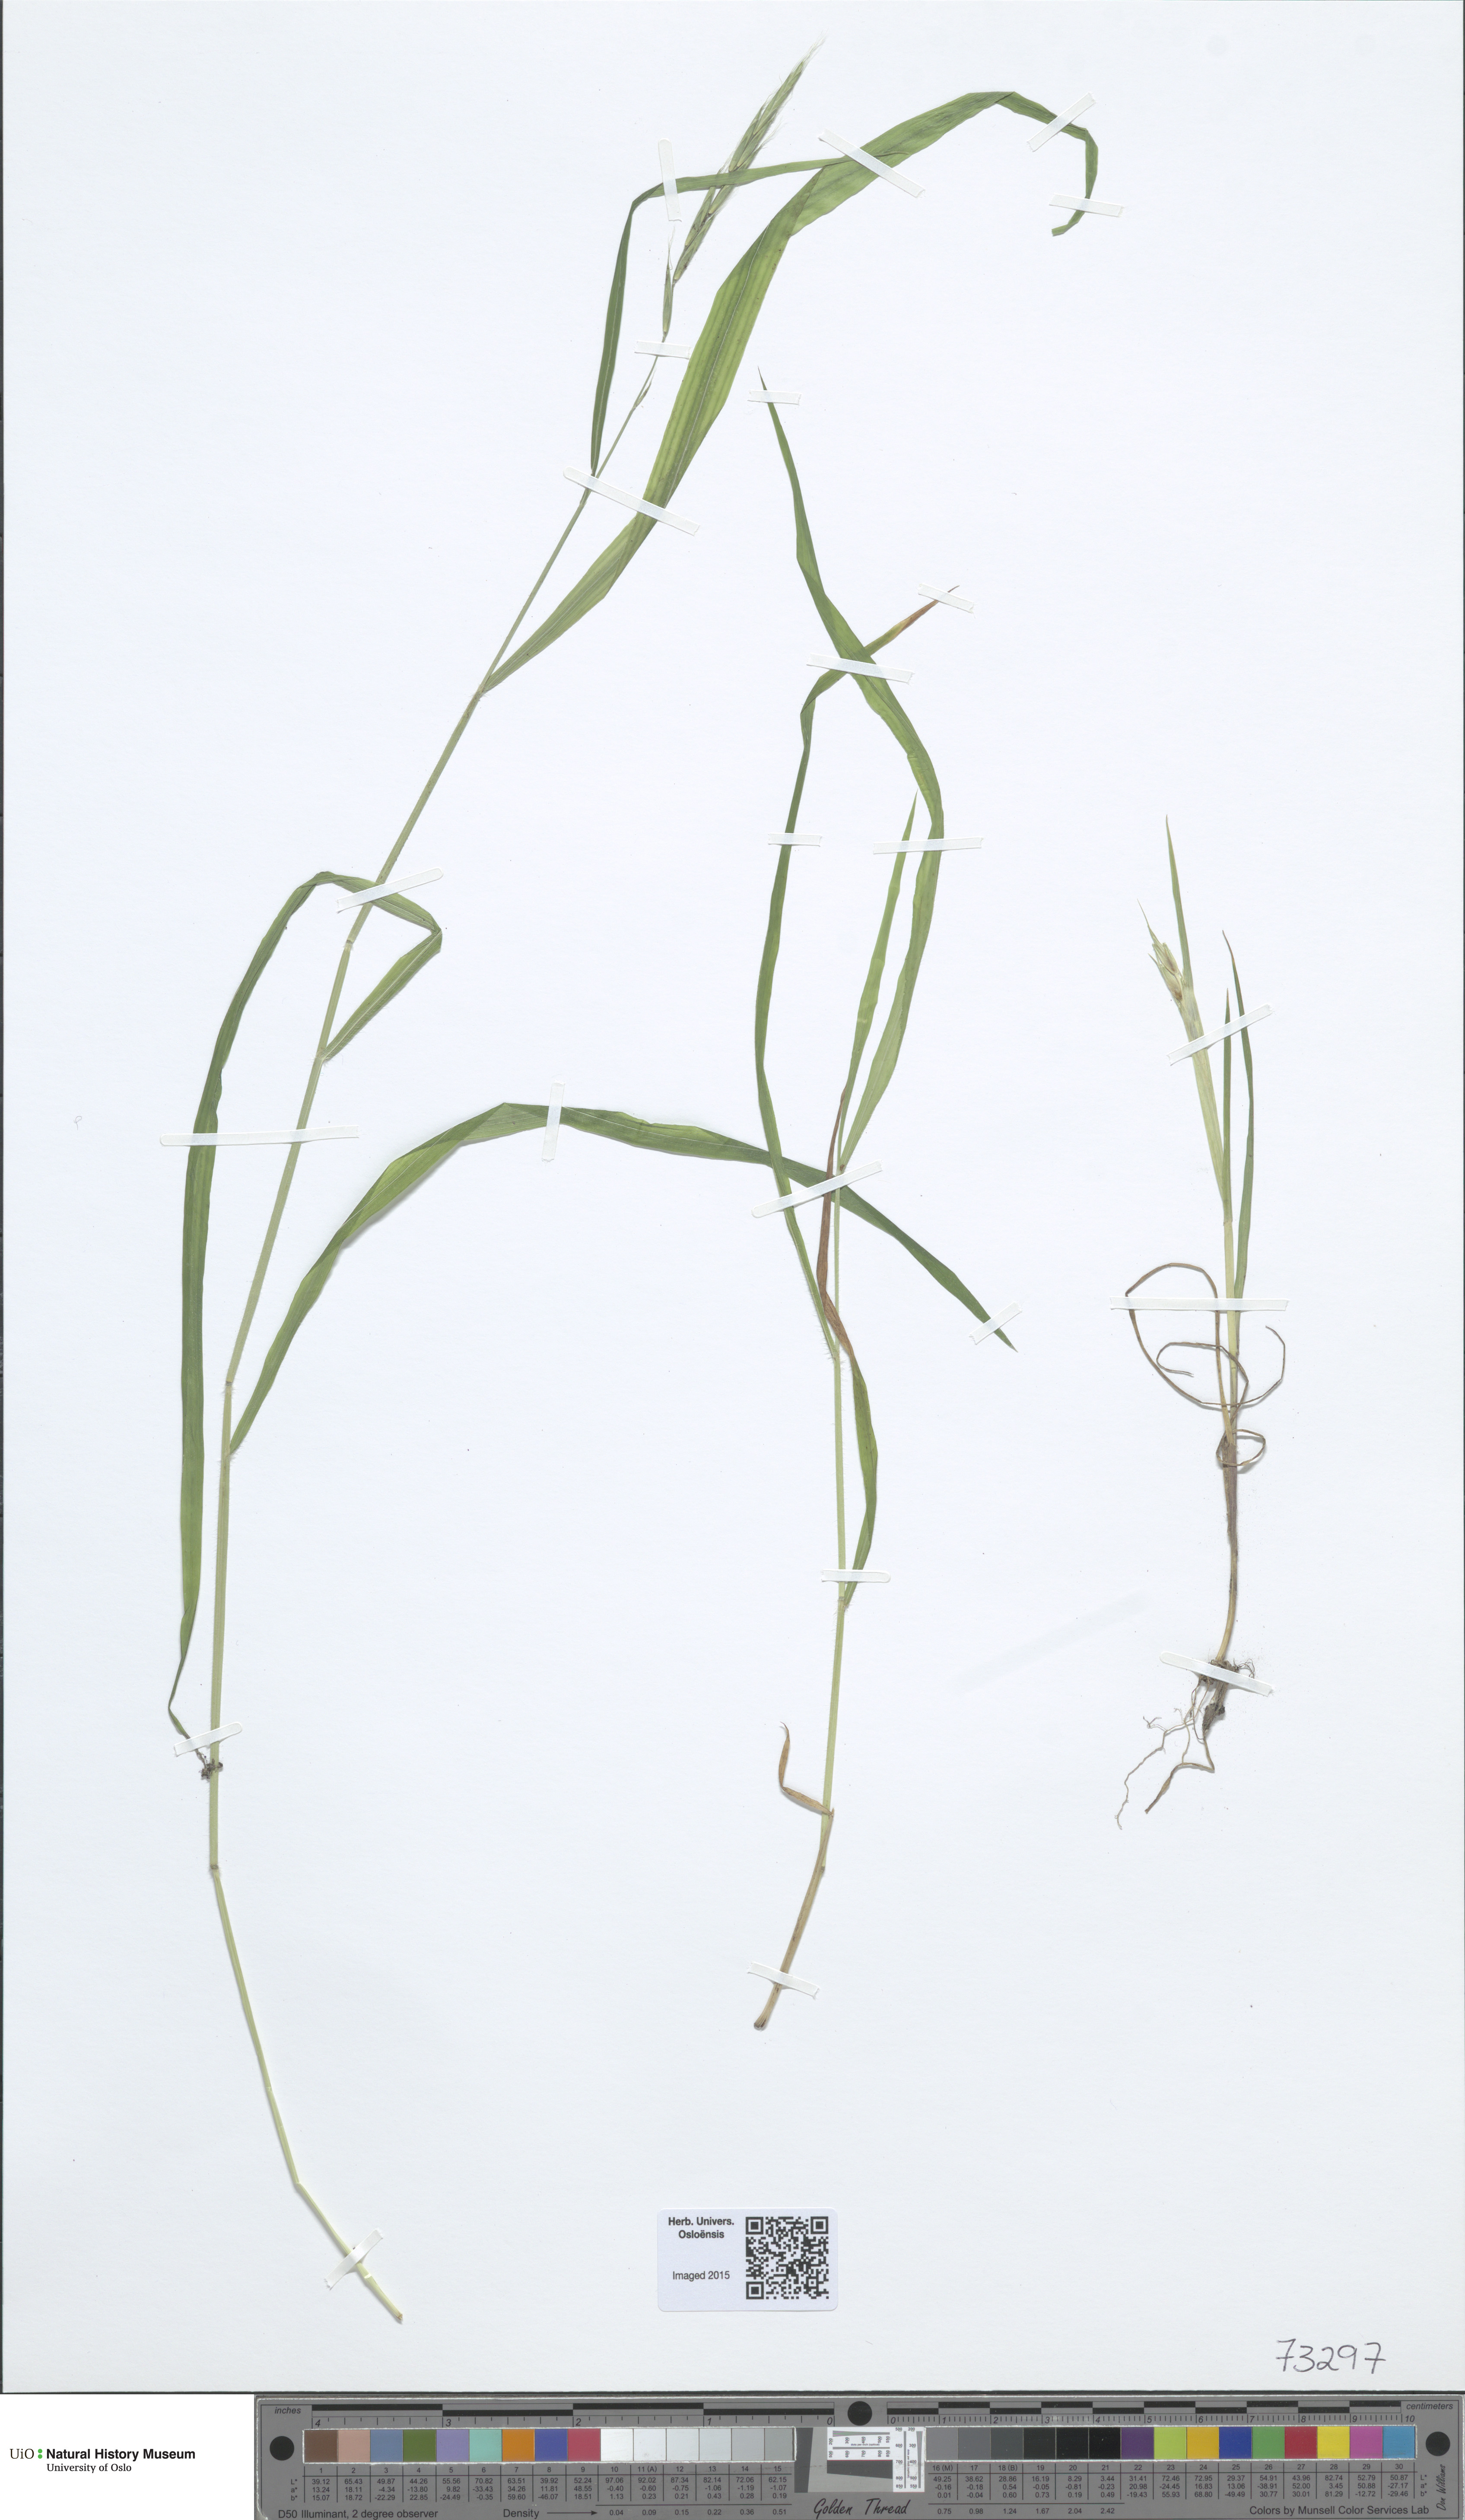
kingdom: Plantae
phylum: Tracheophyta
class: Liliopsida
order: Poales
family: Poaceae
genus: Brachypodium
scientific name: Brachypodium sylvaticum
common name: False-brome
